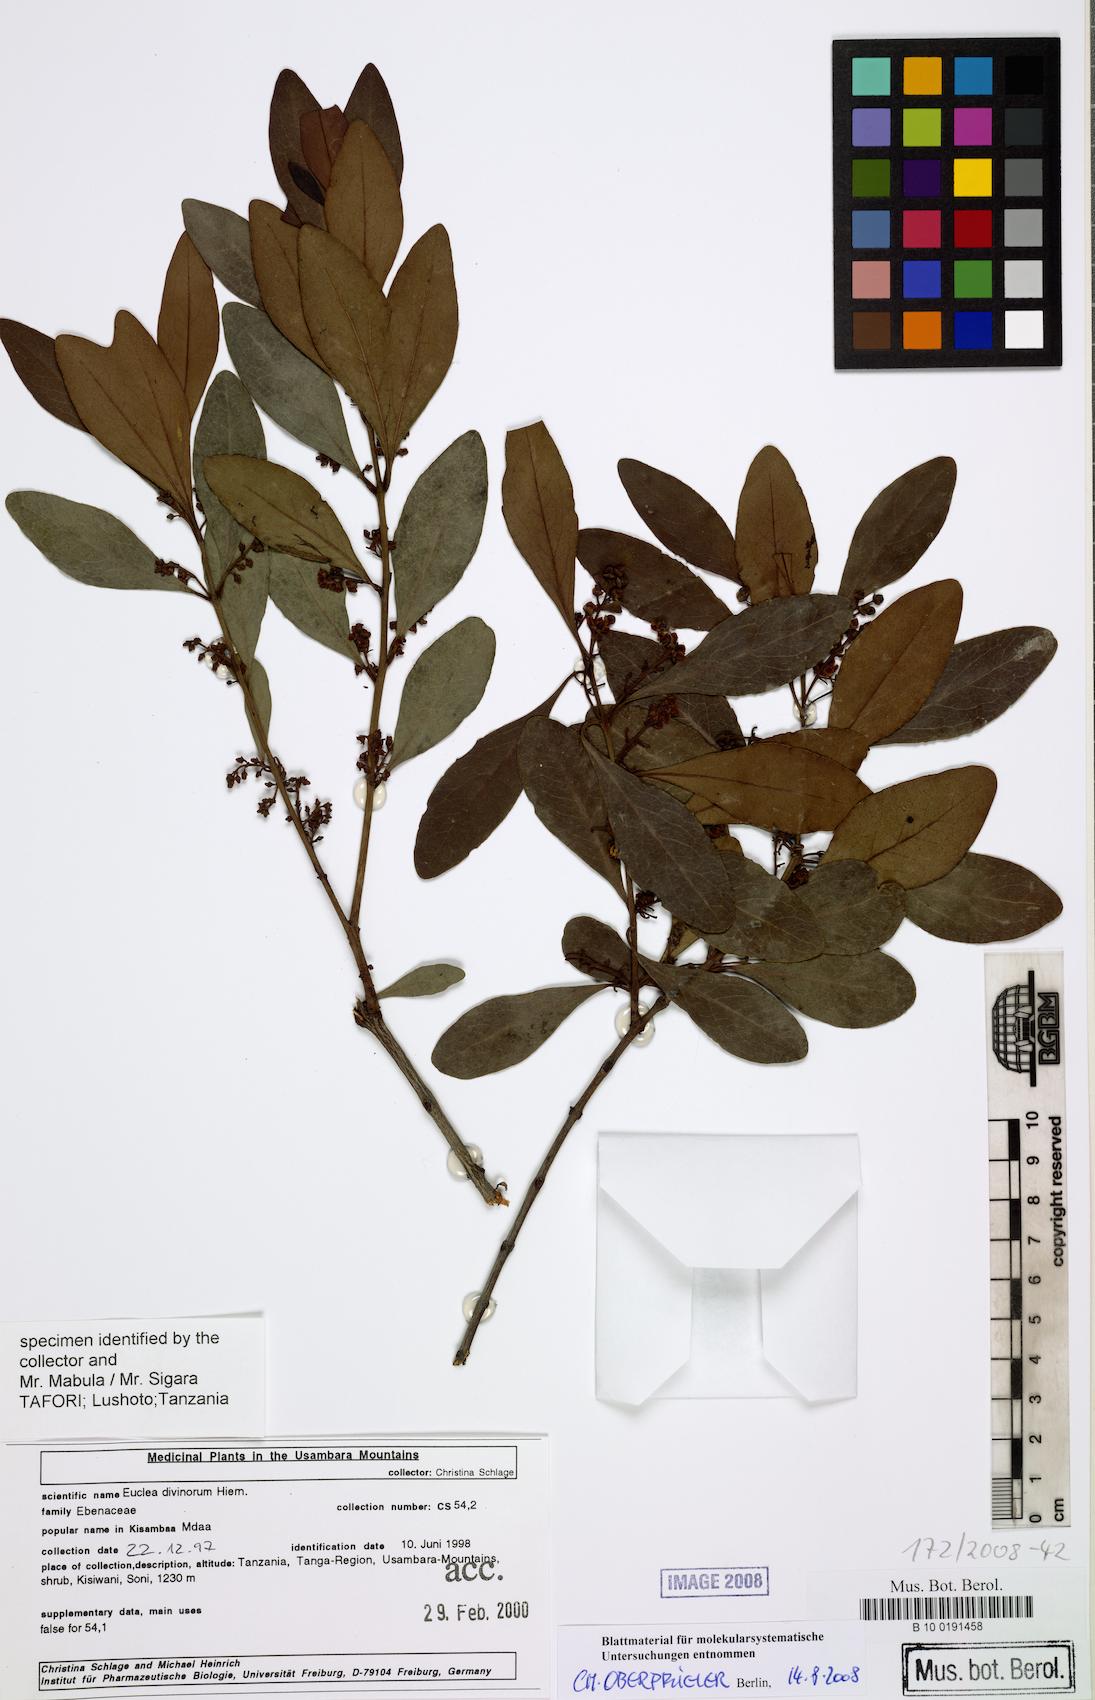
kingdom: Plantae
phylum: Tracheophyta
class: Magnoliopsida
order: Ericales
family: Ebenaceae
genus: Euclea
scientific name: Euclea divinorum
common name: Diamond-leaved euclea
